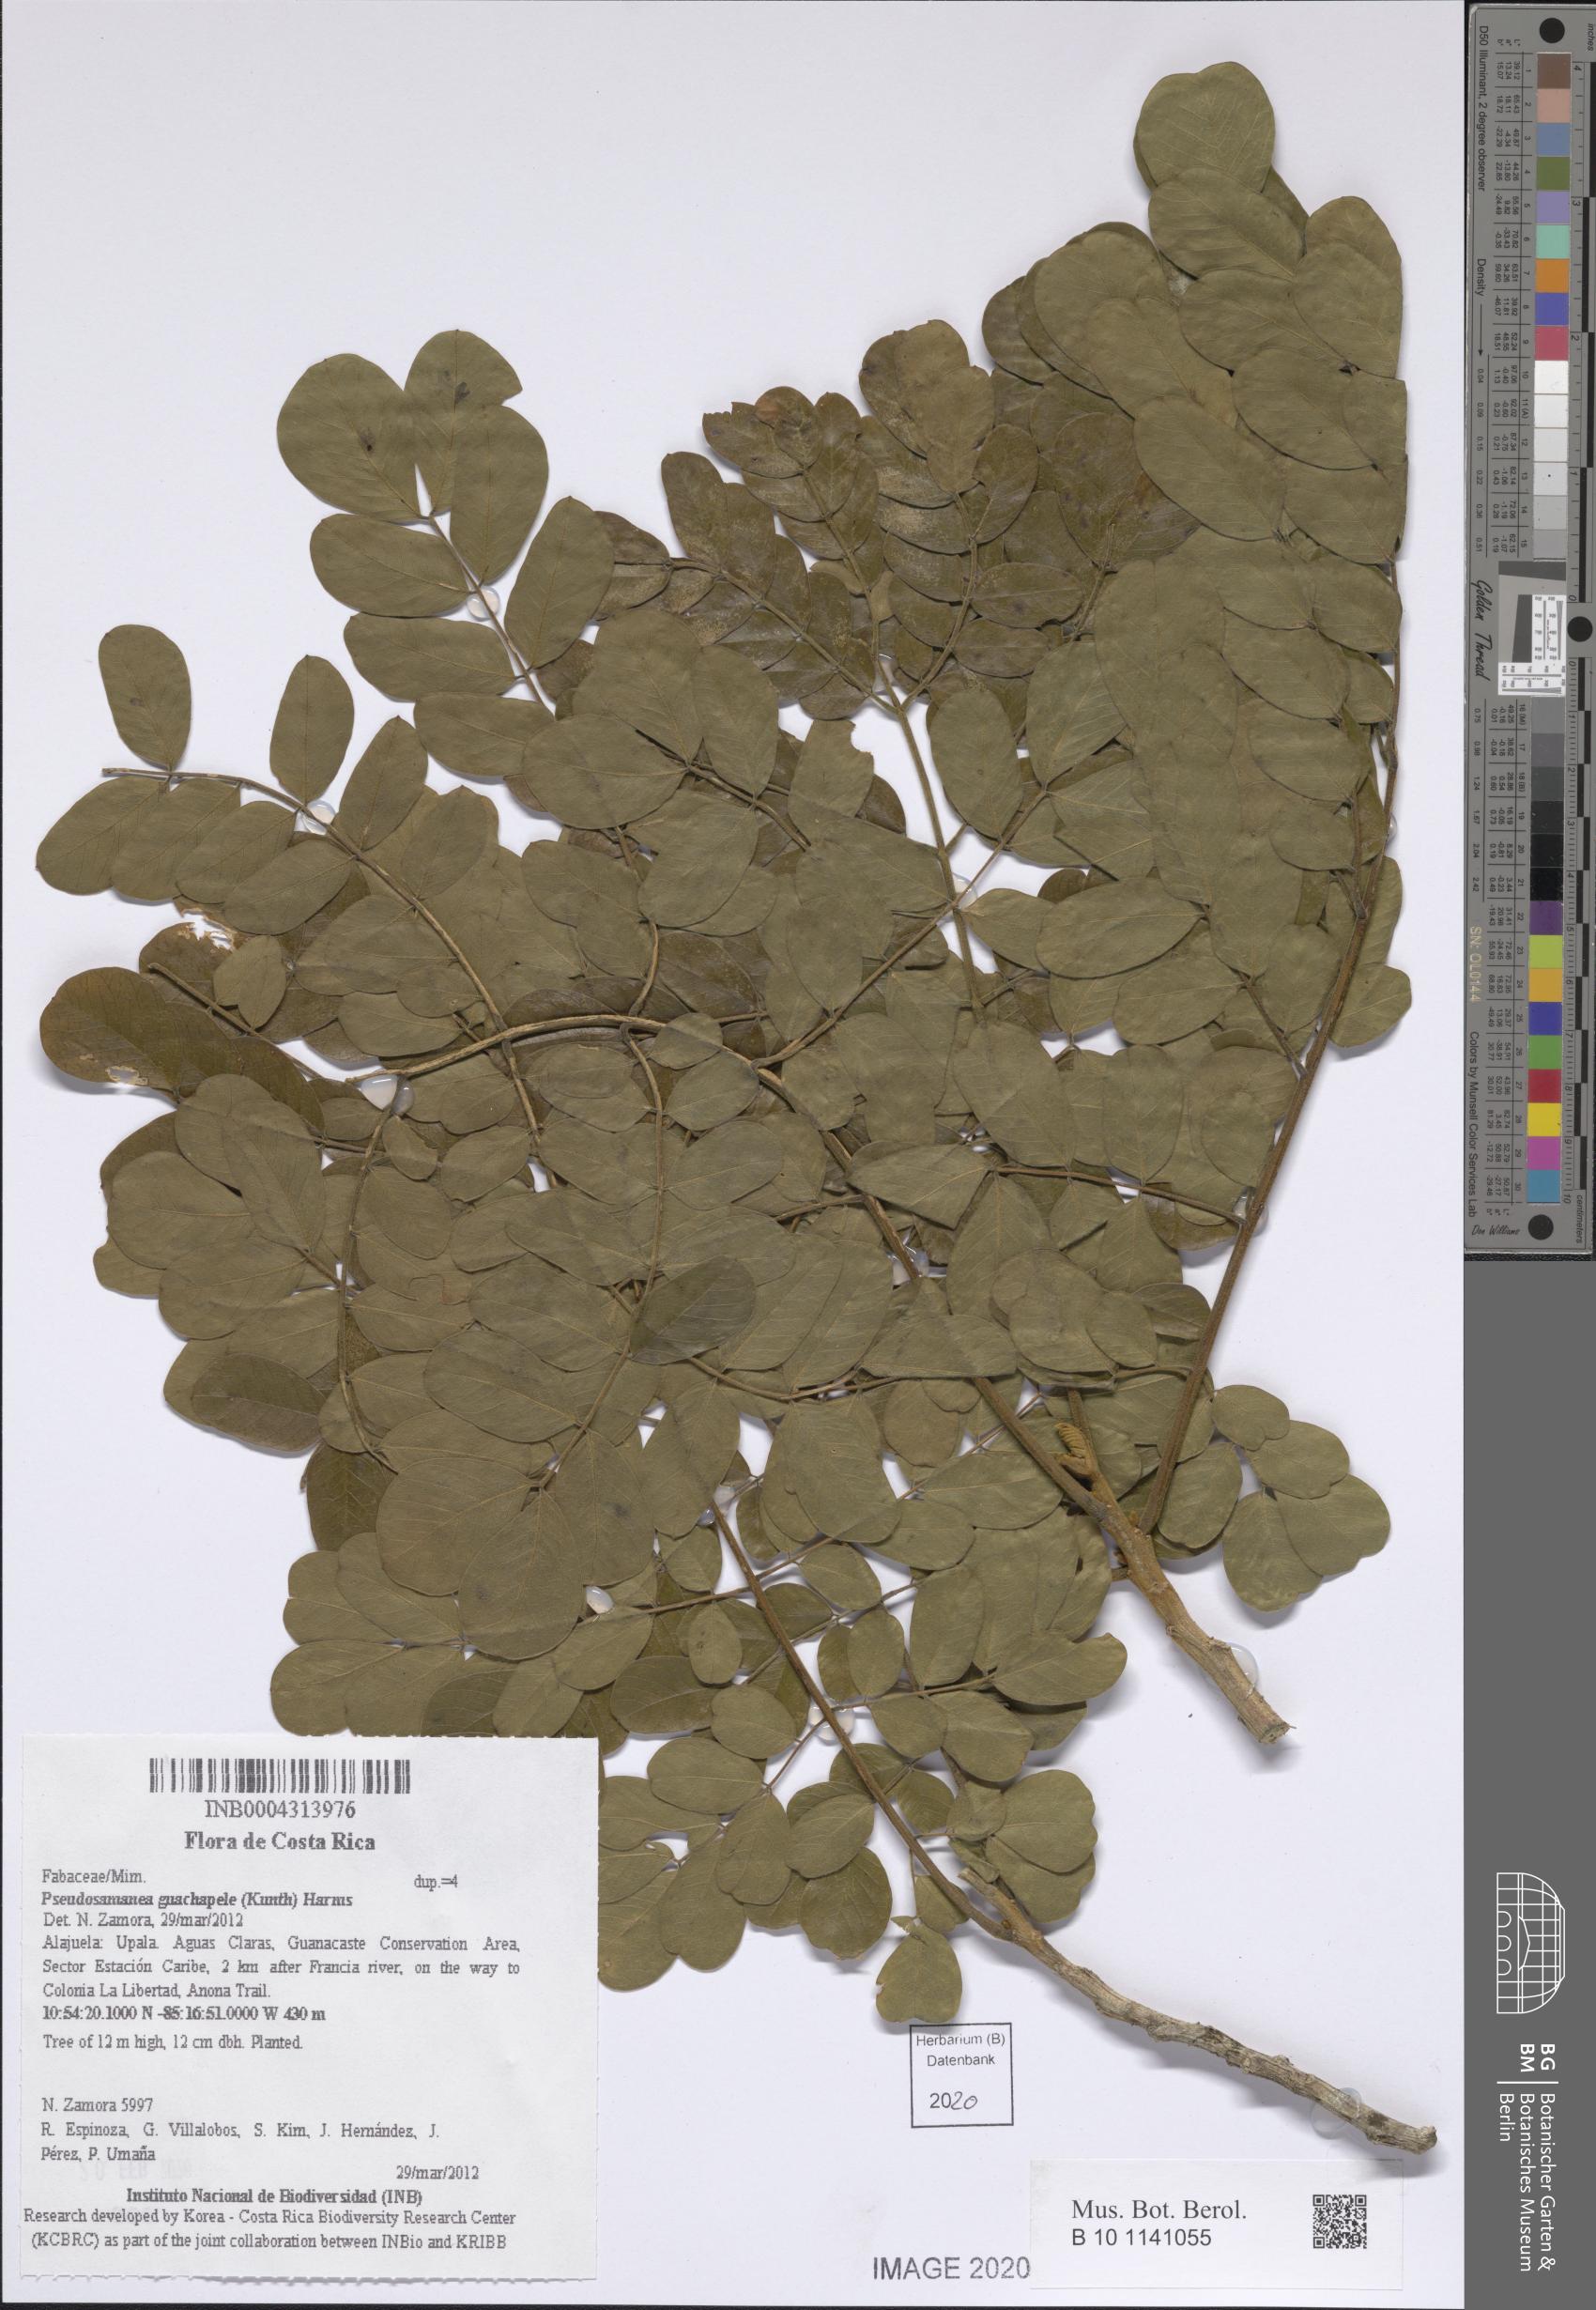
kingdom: Plantae
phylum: Tracheophyta
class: Magnoliopsida
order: Fabales
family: Fabaceae
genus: Pseudosamanea
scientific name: Pseudosamanea guachapele
